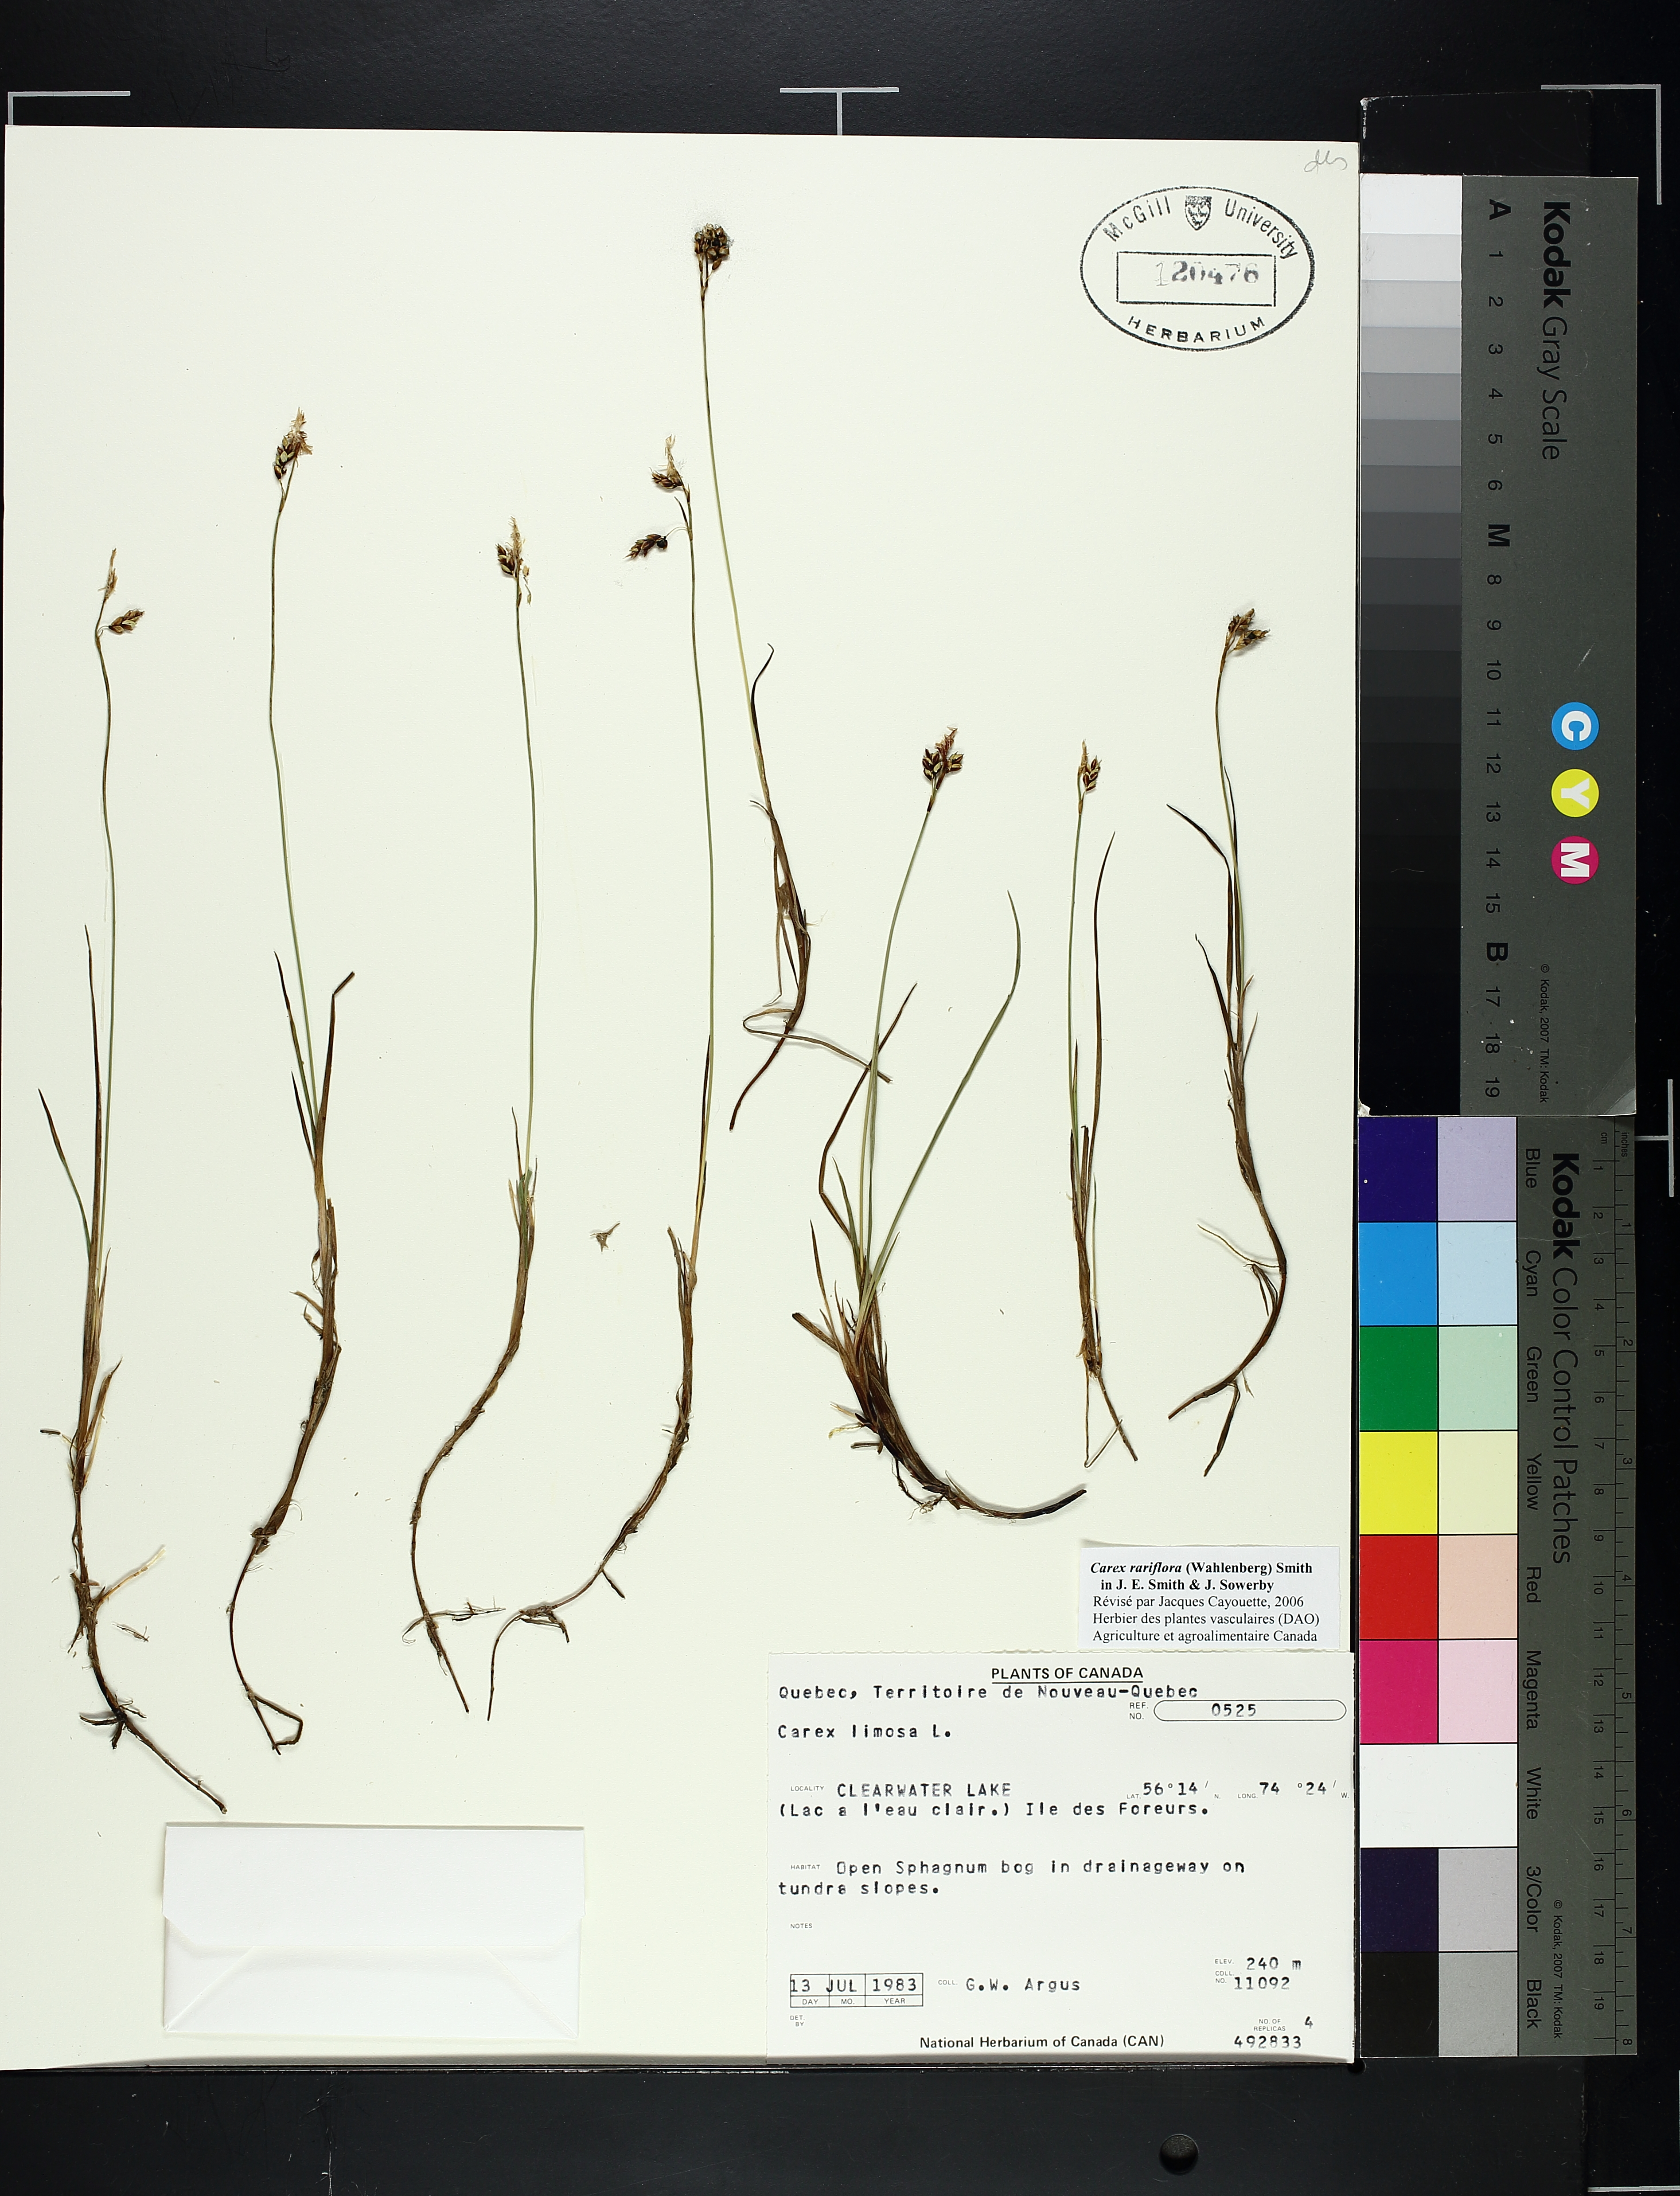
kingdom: Plantae
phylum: Tracheophyta
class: Liliopsida
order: Poales
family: Cyperaceae
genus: Carex
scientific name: Carex limosa
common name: Bog sedge
